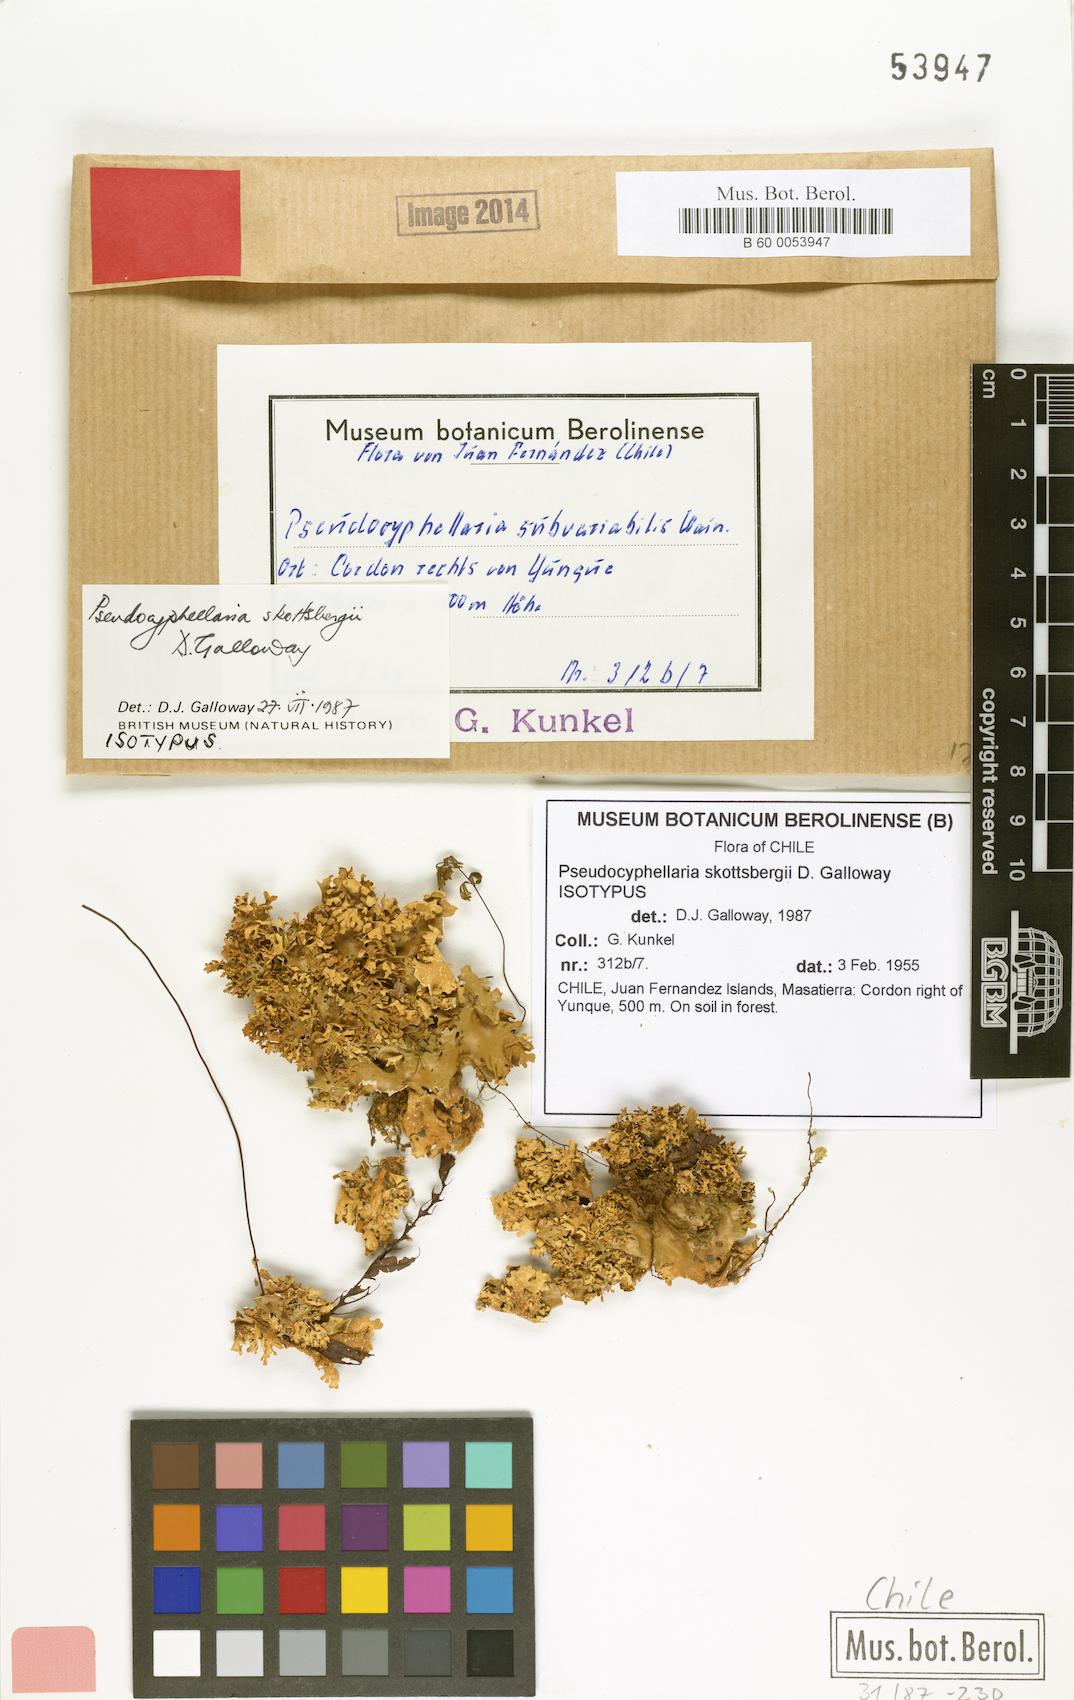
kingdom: Fungi
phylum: Ascomycota
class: Lecanoromycetes
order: Peltigerales
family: Lobariaceae
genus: Pseudocyphellaria
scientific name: Pseudocyphellaria skottsbergii
